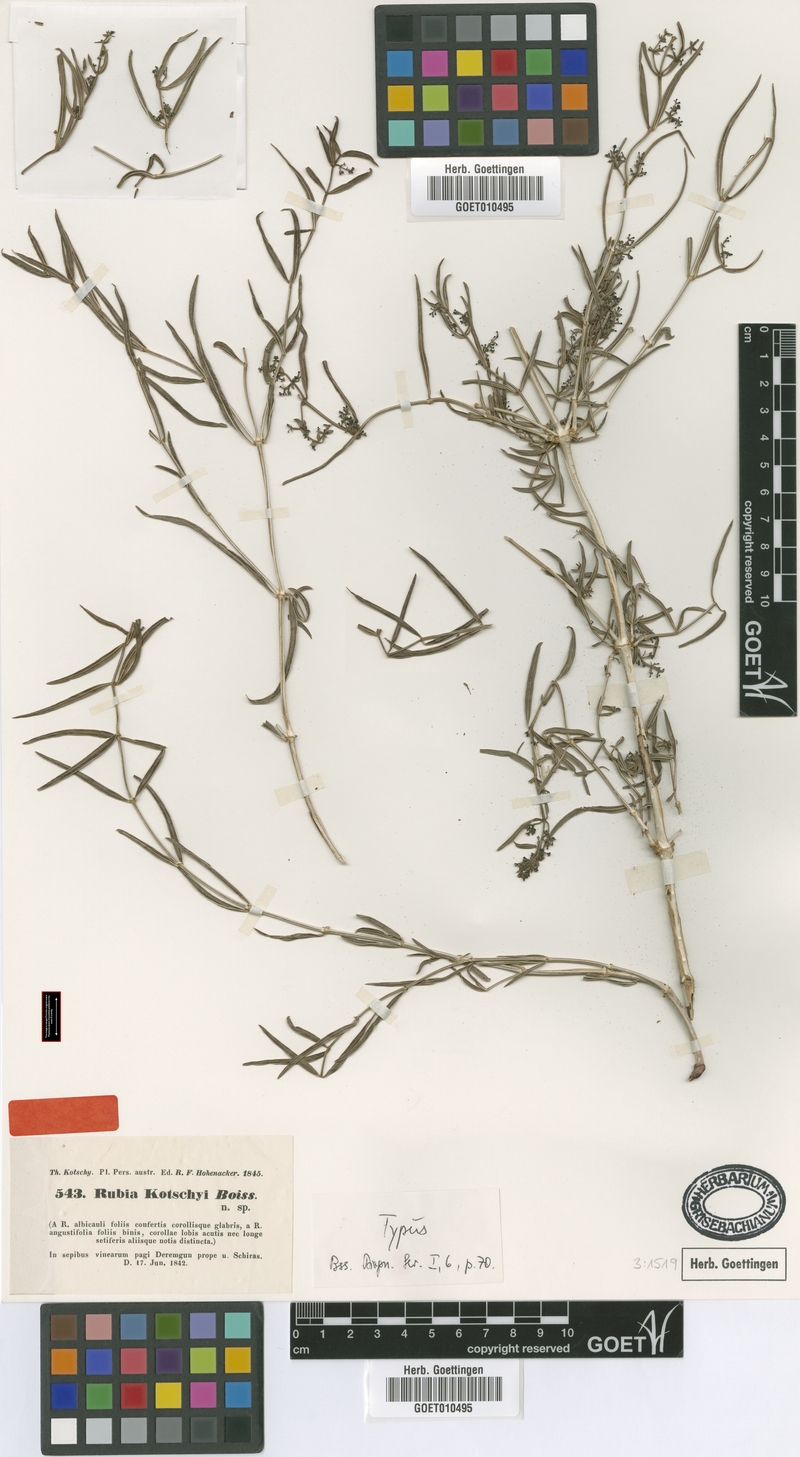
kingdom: Plantae
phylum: Tracheophyta
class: Magnoliopsida
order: Gentianales
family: Rubiaceae
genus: Rubia
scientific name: Rubia albicaulis
